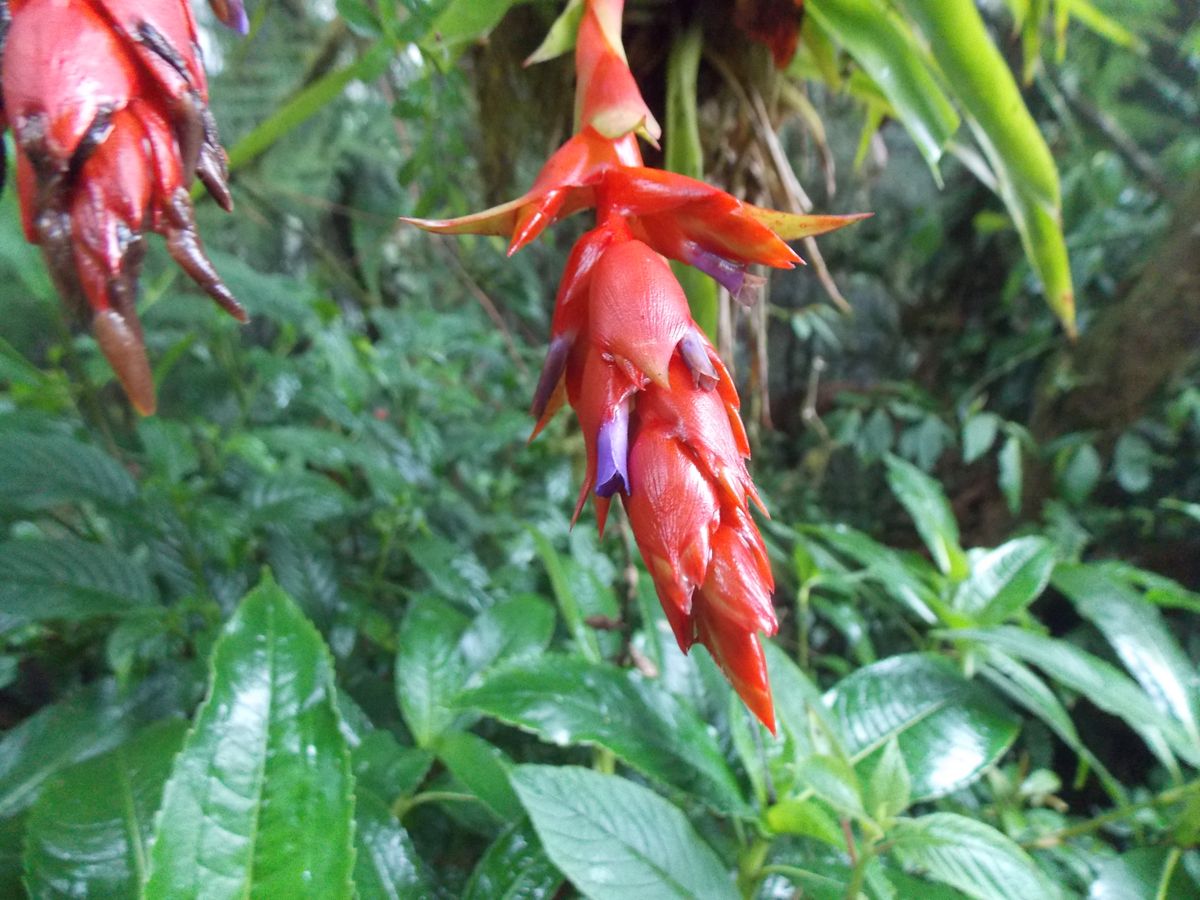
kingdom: Plantae
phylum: Tracheophyta
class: Liliopsida
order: Poales
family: Bromeliaceae
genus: Tillandsia
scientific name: Tillandsia guatemalensis
